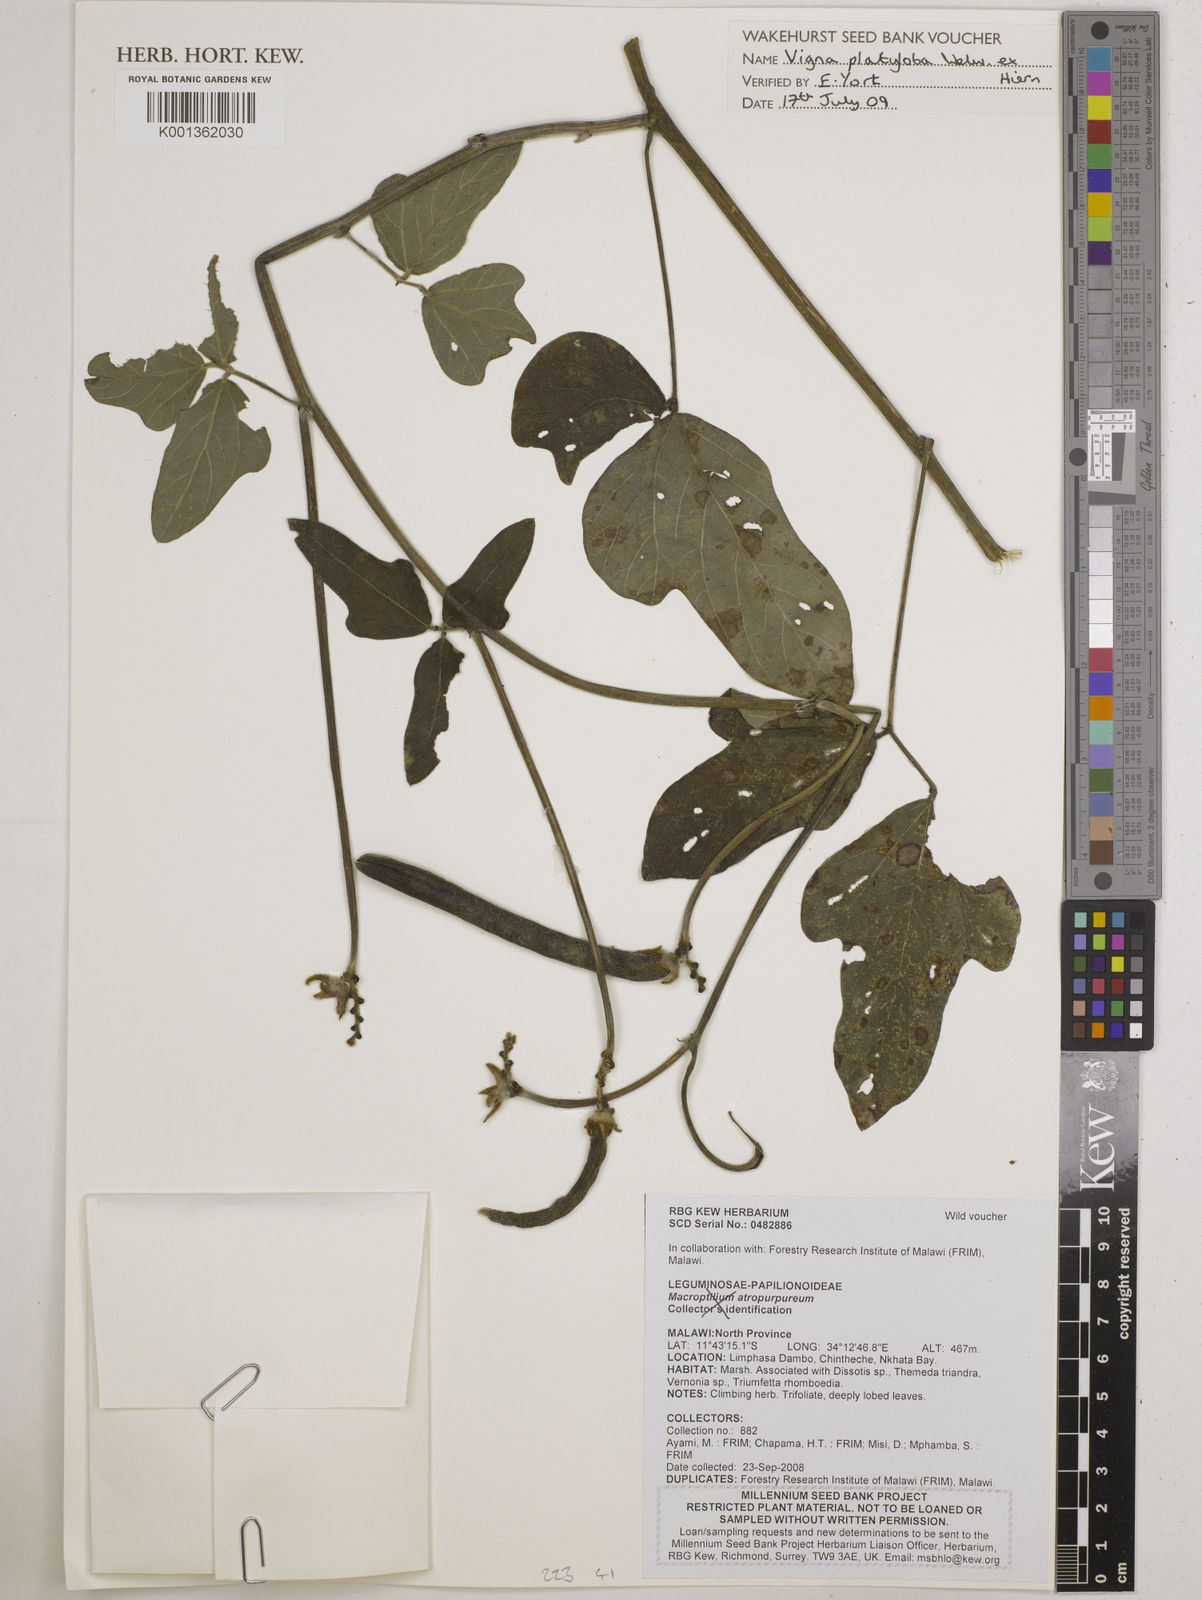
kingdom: Plantae
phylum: Tracheophyta
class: Magnoliopsida
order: Fabales
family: Fabaceae
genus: Vigna
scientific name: Vigna platyloba
